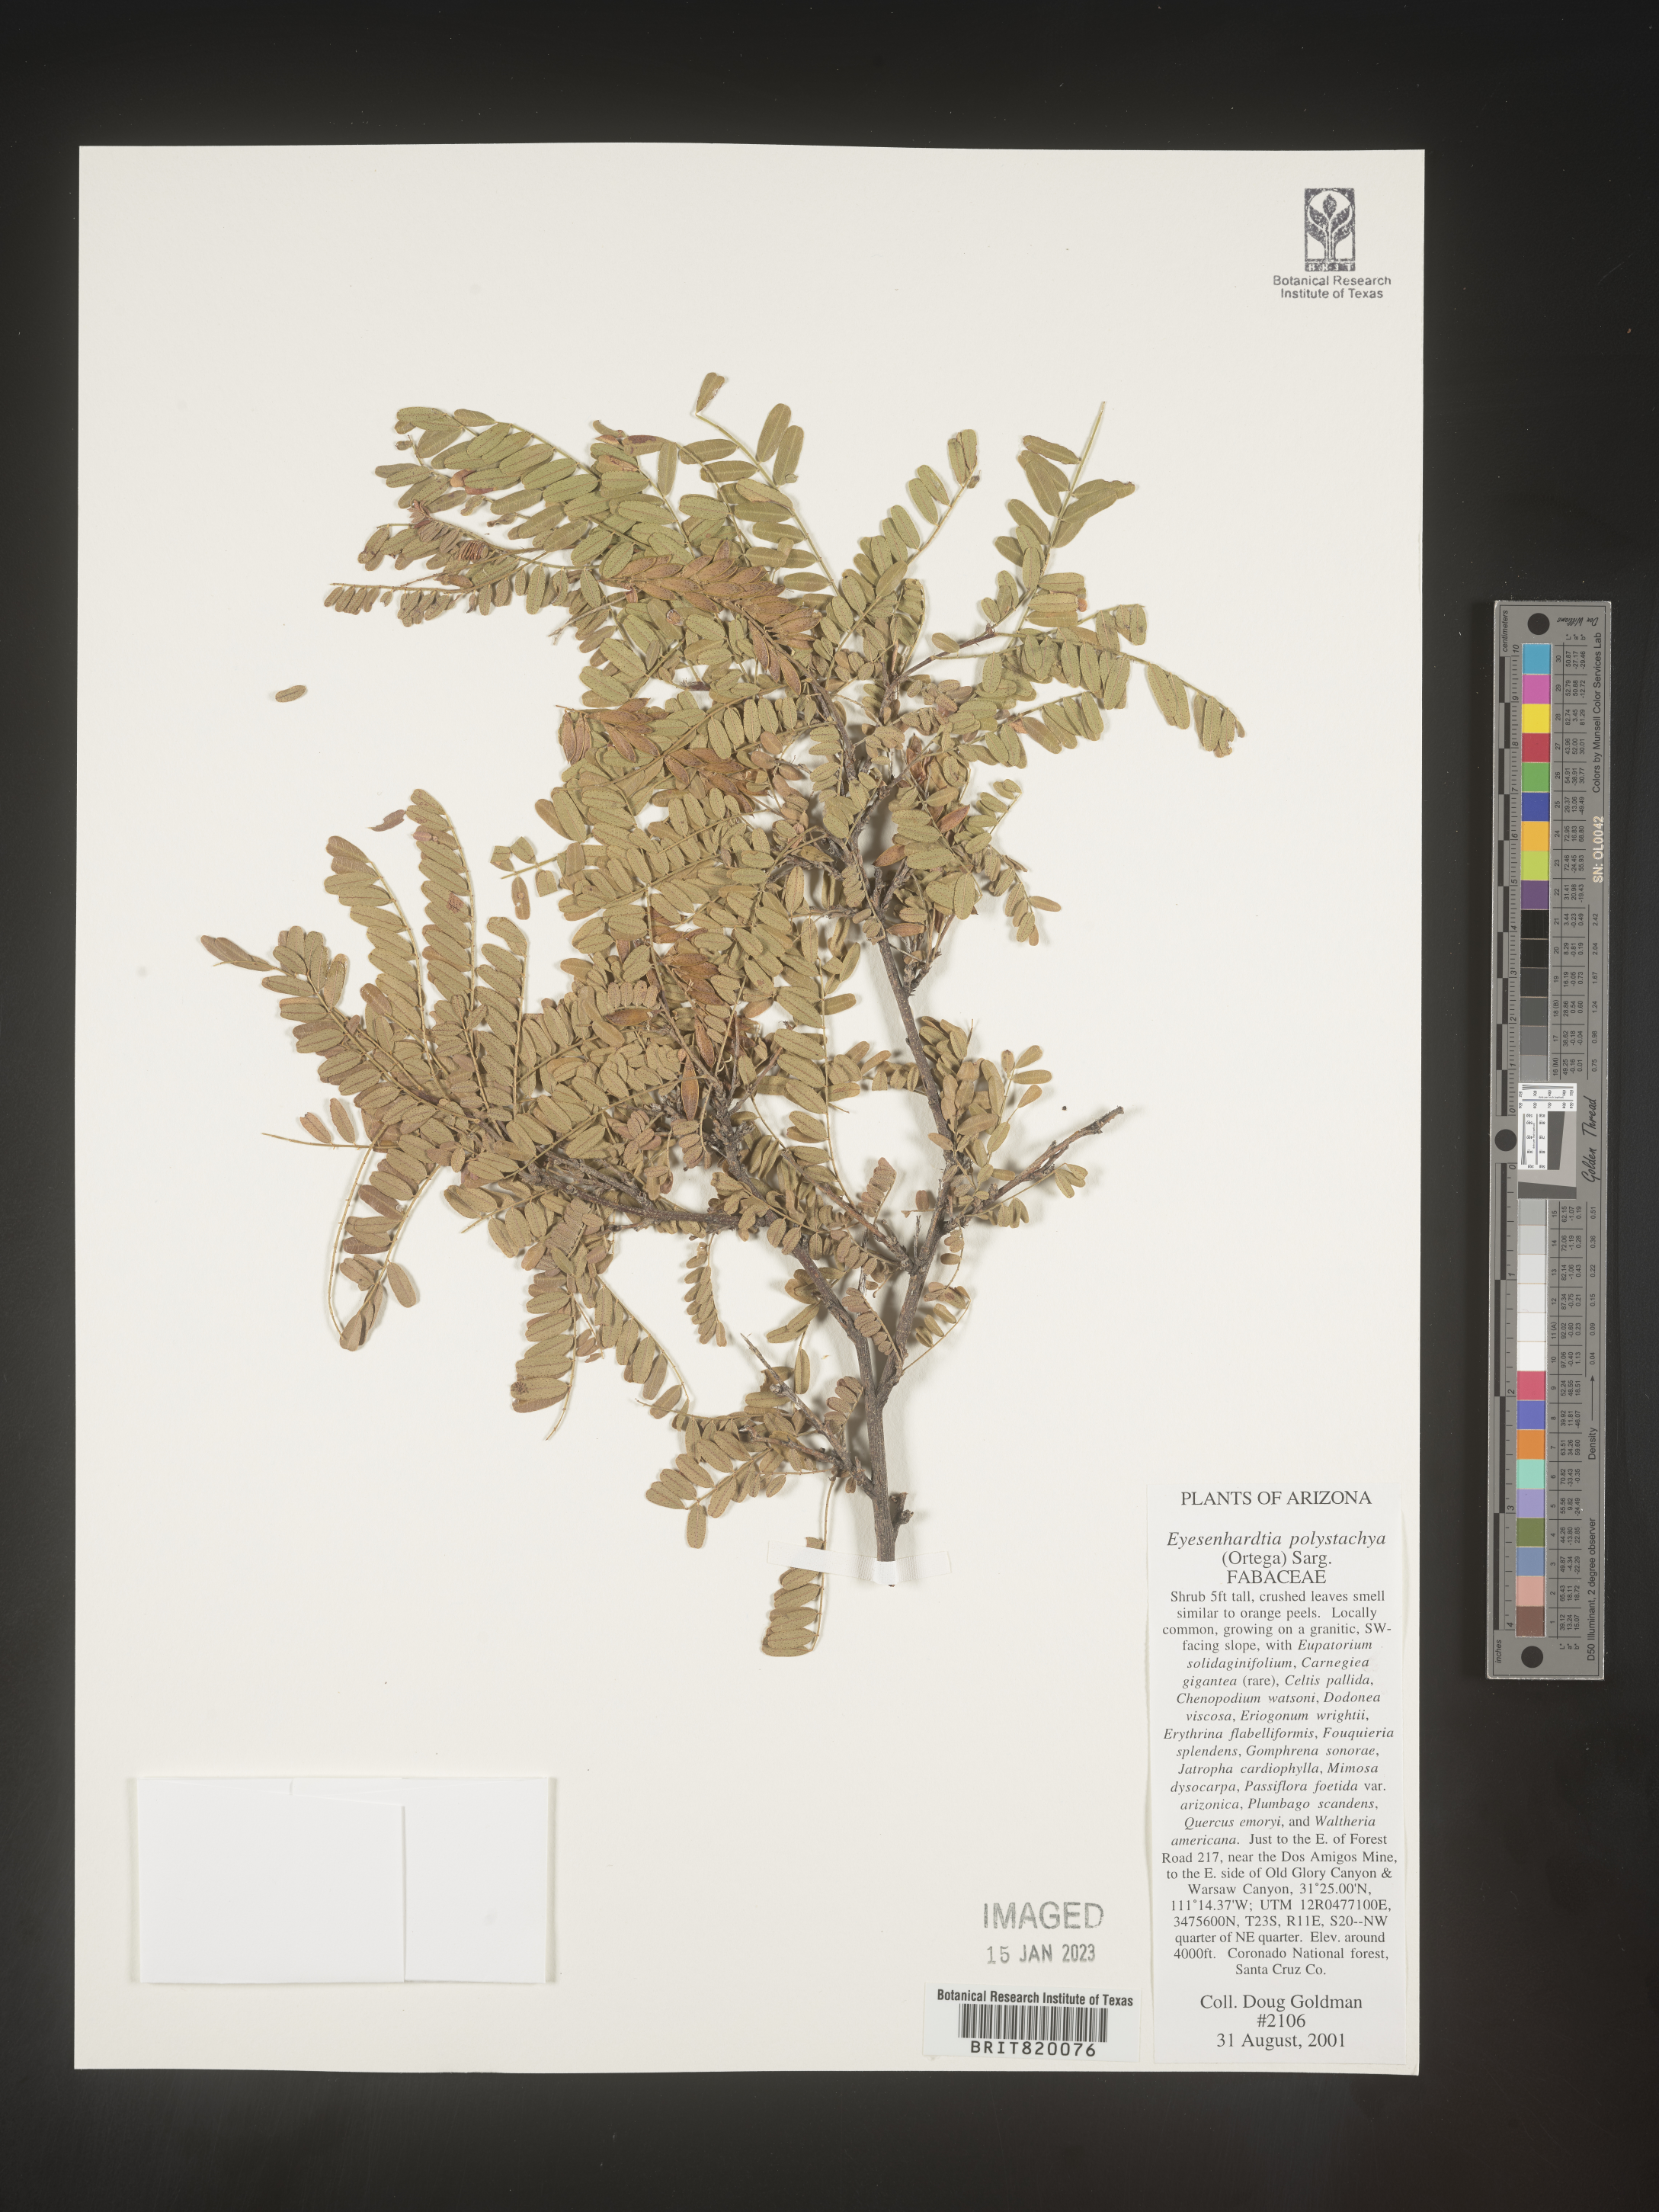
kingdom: Plantae
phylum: Tracheophyta
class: Magnoliopsida
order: Fabales
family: Fabaceae
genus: Eysenhardtia
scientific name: Eysenhardtia
